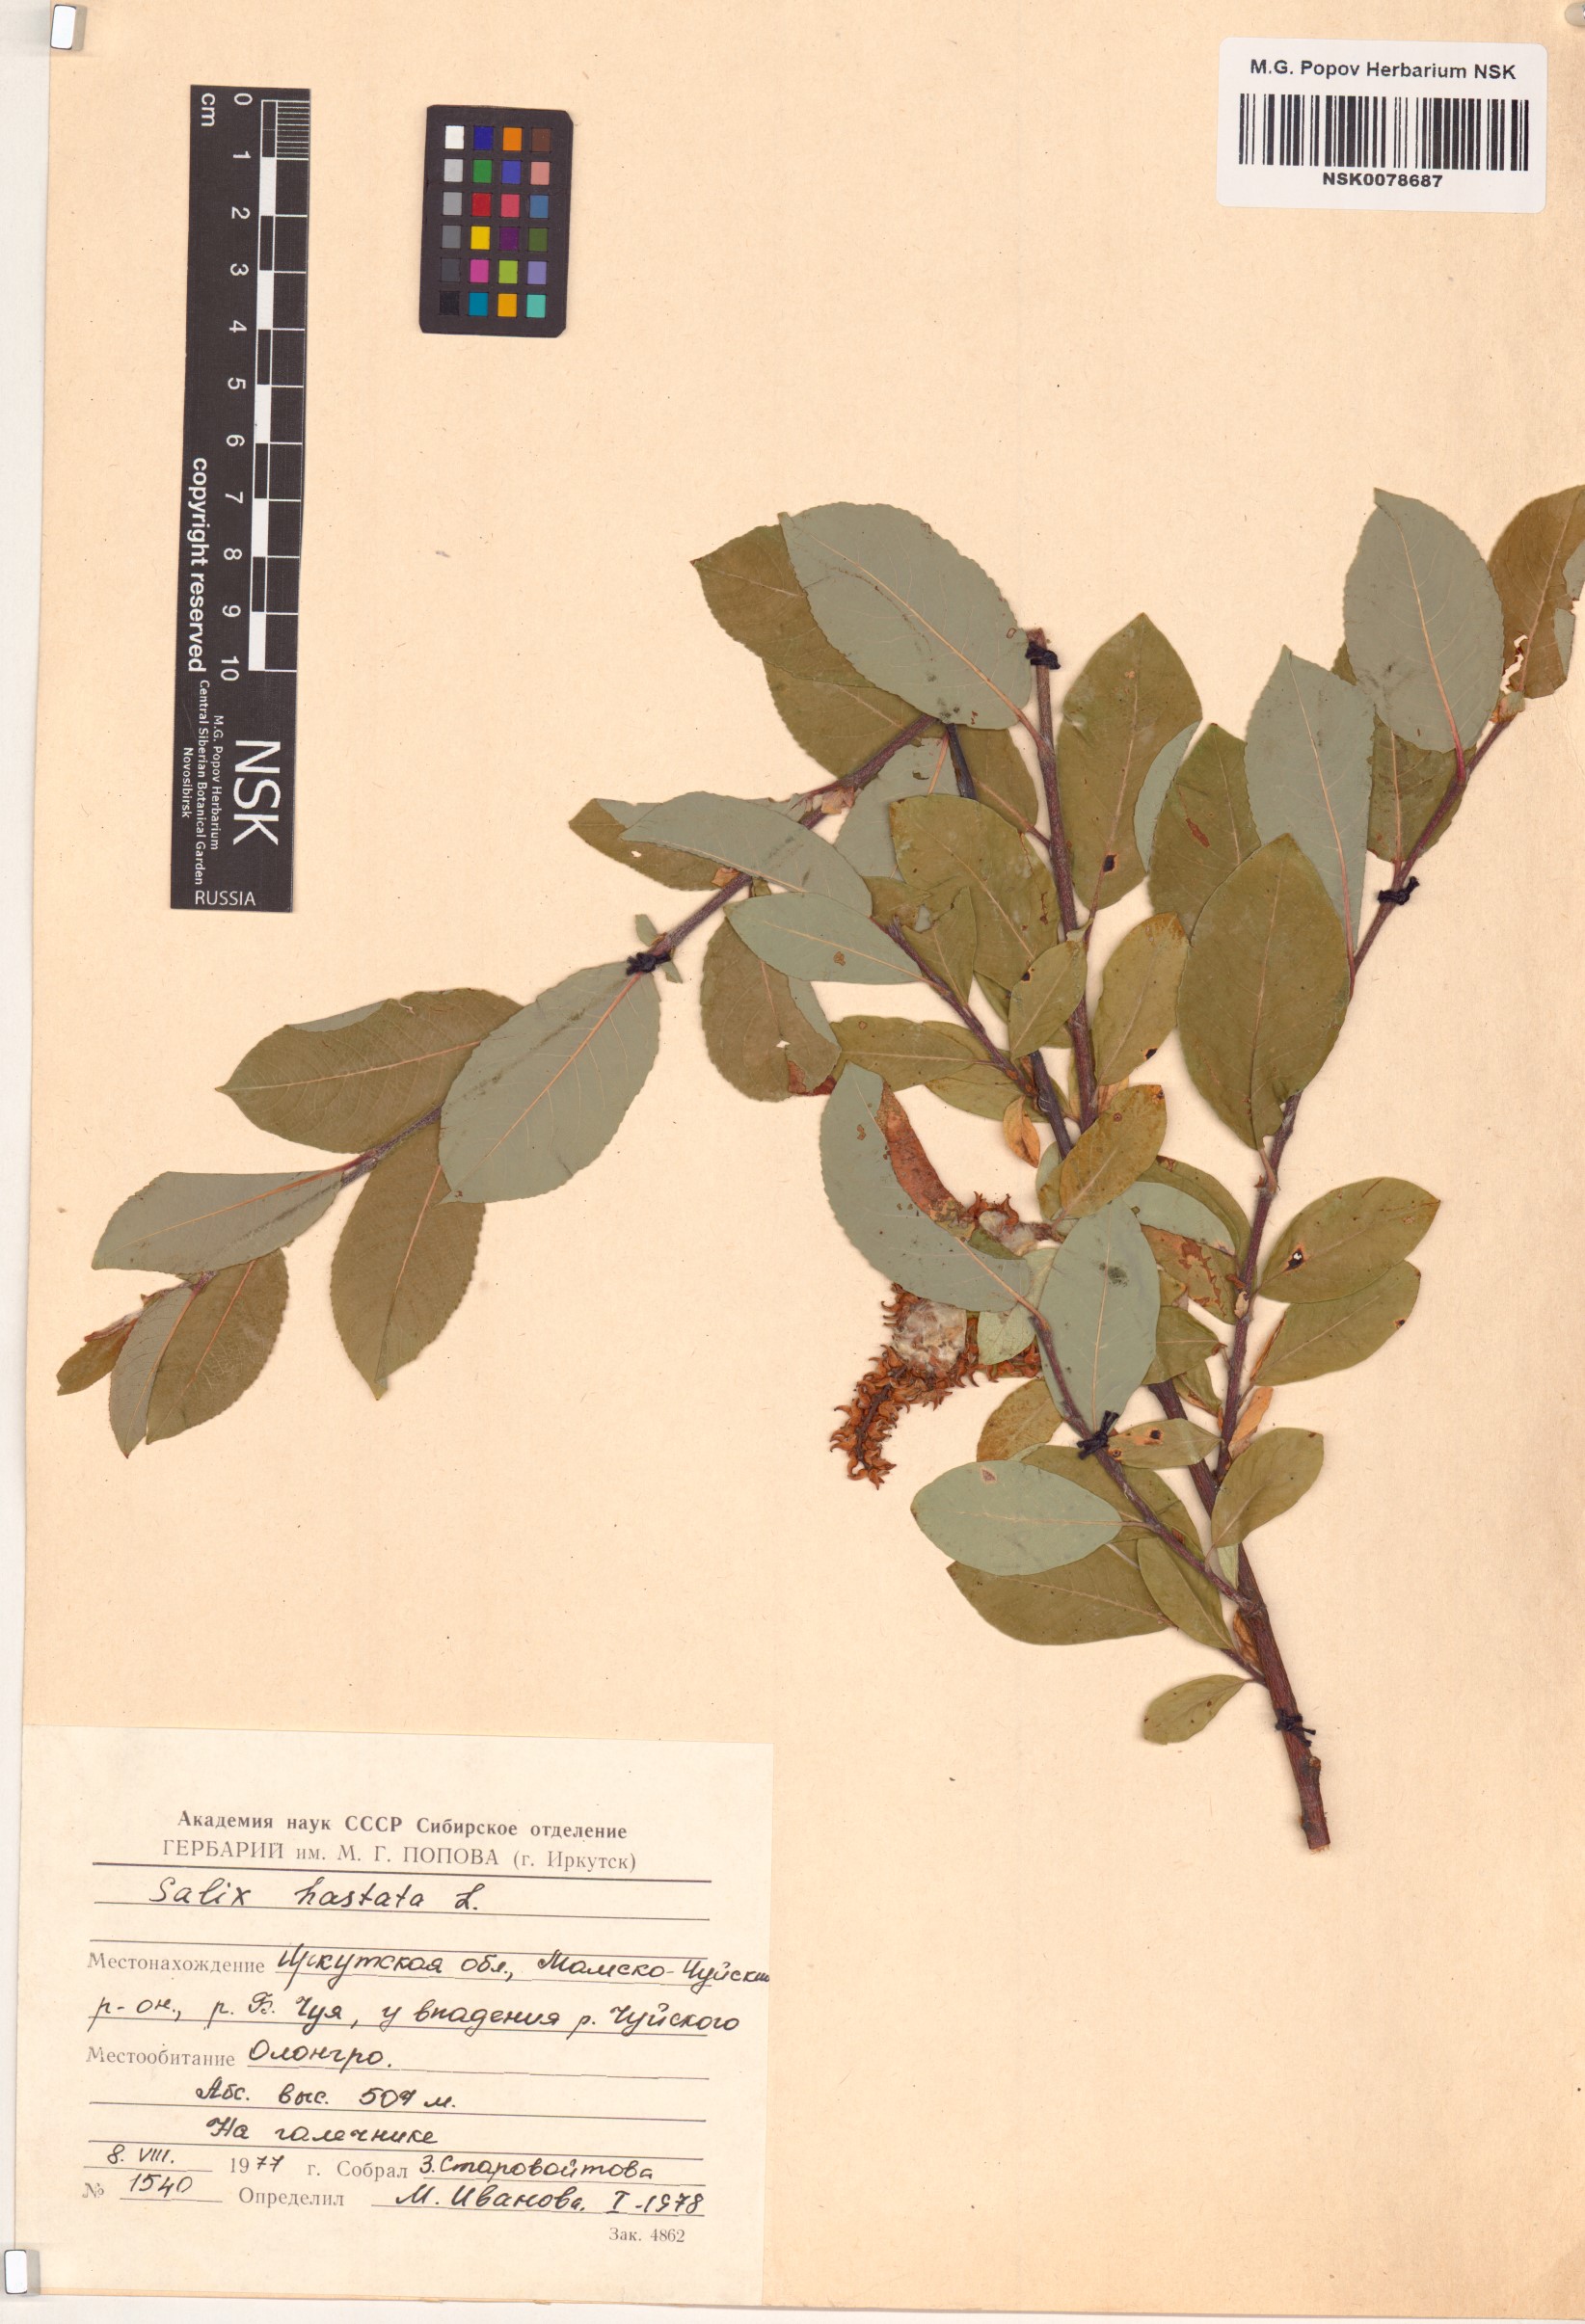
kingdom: Plantae
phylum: Tracheophyta
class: Magnoliopsida
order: Malpighiales
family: Salicaceae
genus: Salix
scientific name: Salix hastata
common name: Halberd willow
